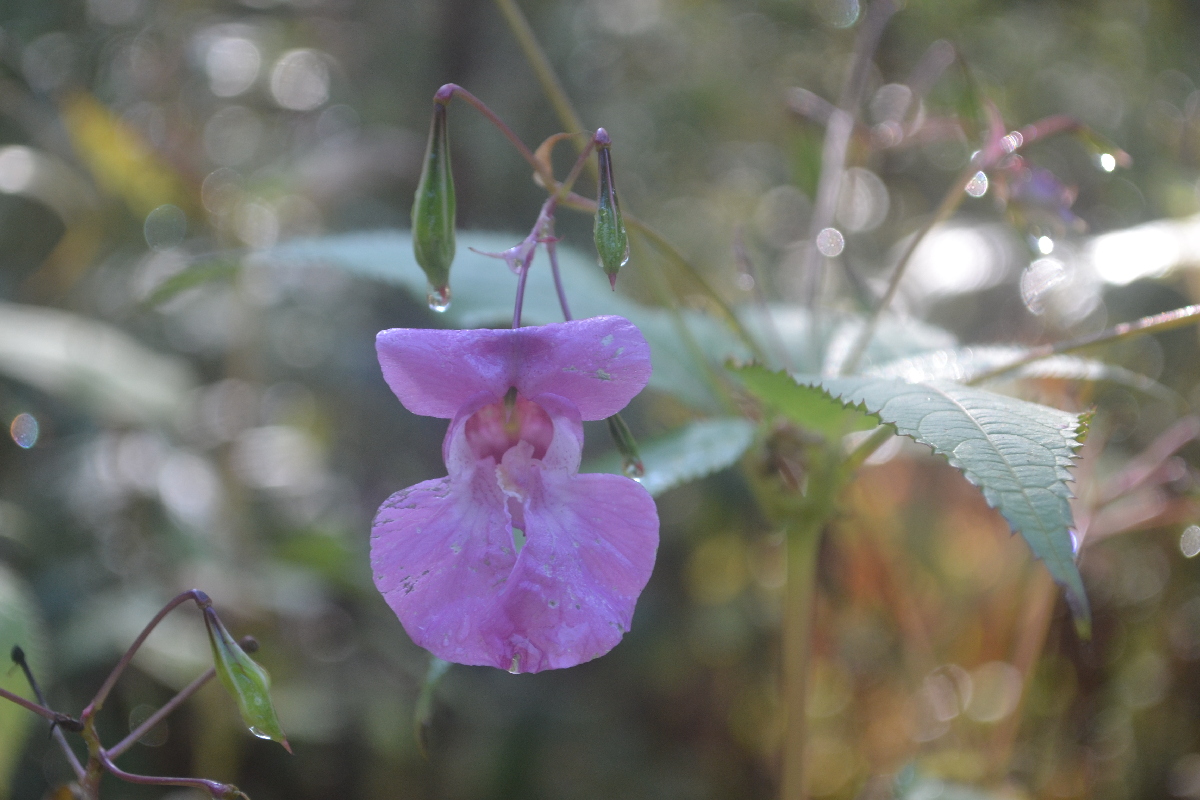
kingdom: Plantae
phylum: Tracheophyta
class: Magnoliopsida
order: Ericales
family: Balsaminaceae
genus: Impatiens
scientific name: Impatiens glandulifera
